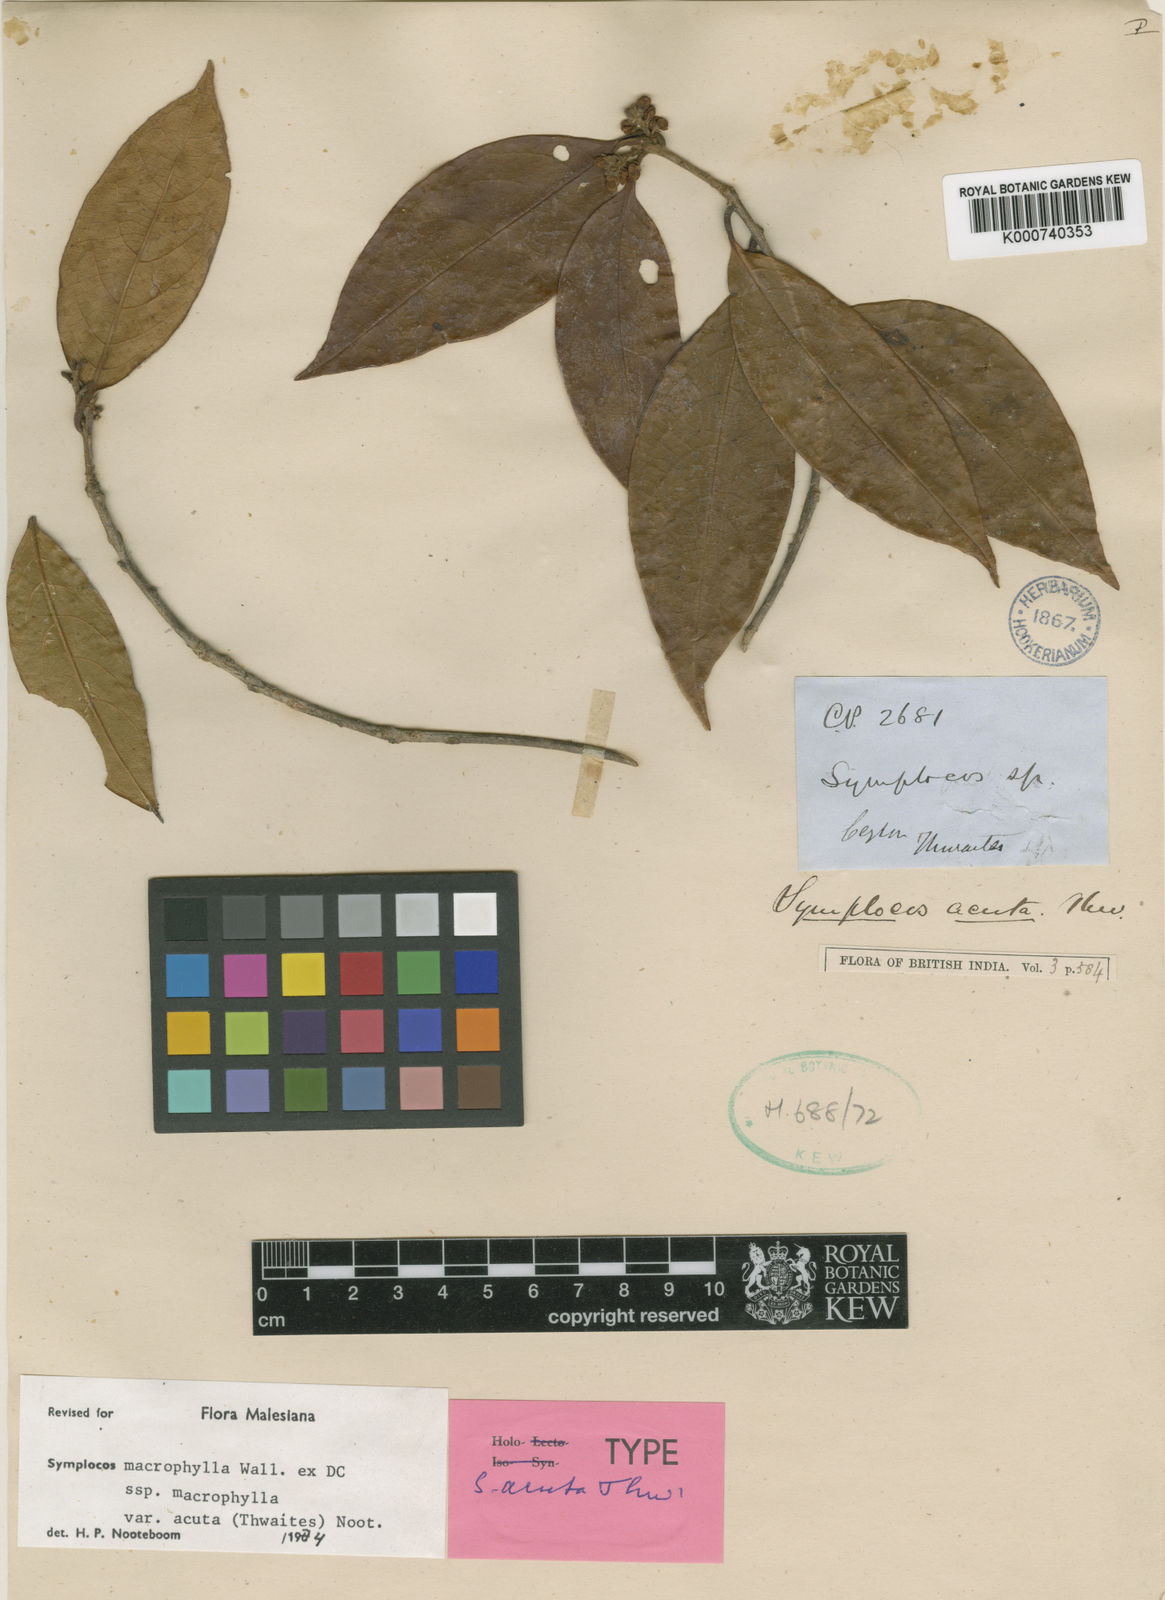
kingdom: Plantae
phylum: Tracheophyta
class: Magnoliopsida
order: Ericales
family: Symplocaceae
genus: Symplocos
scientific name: Symplocos
